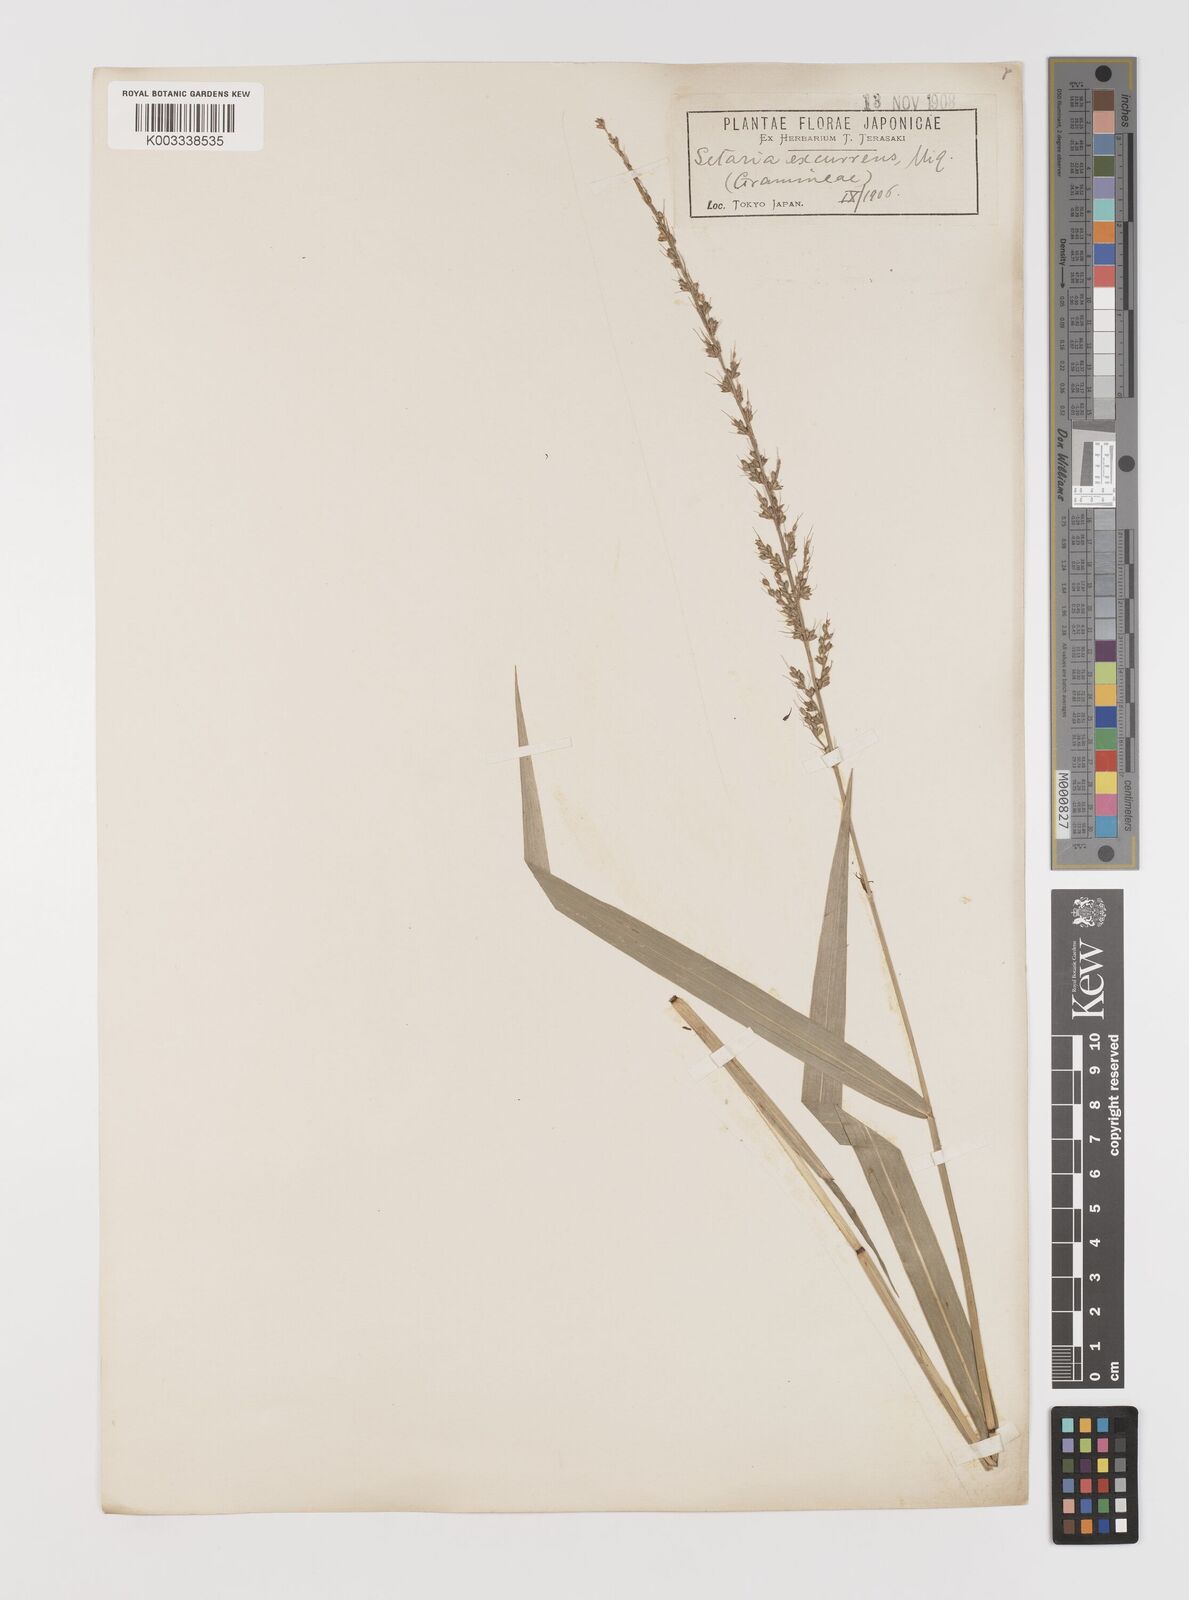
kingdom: Plantae
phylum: Tracheophyta
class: Liliopsida
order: Poales
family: Poaceae
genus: Setaria
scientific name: Setaria chondrachne
